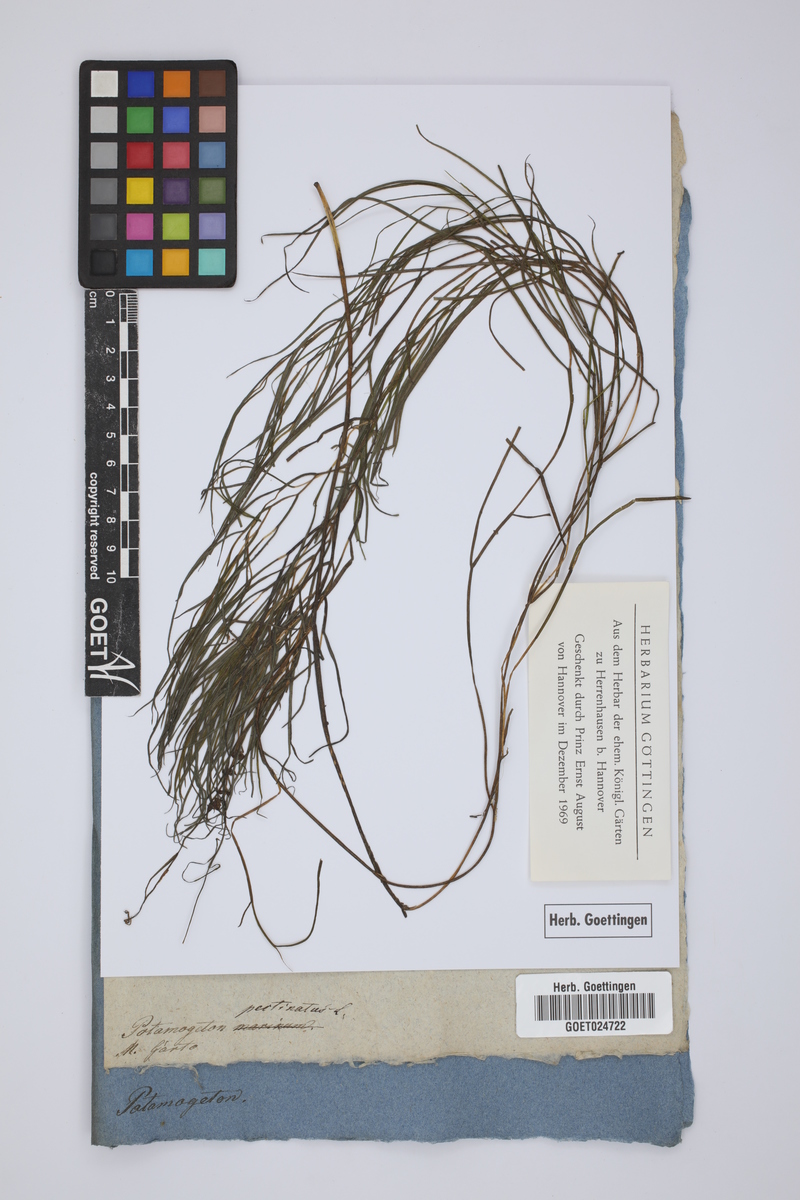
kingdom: Plantae
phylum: Tracheophyta
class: Liliopsida
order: Alismatales
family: Potamogetonaceae
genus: Stuckenia
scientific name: Stuckenia pectinata
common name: Sago pondweed
